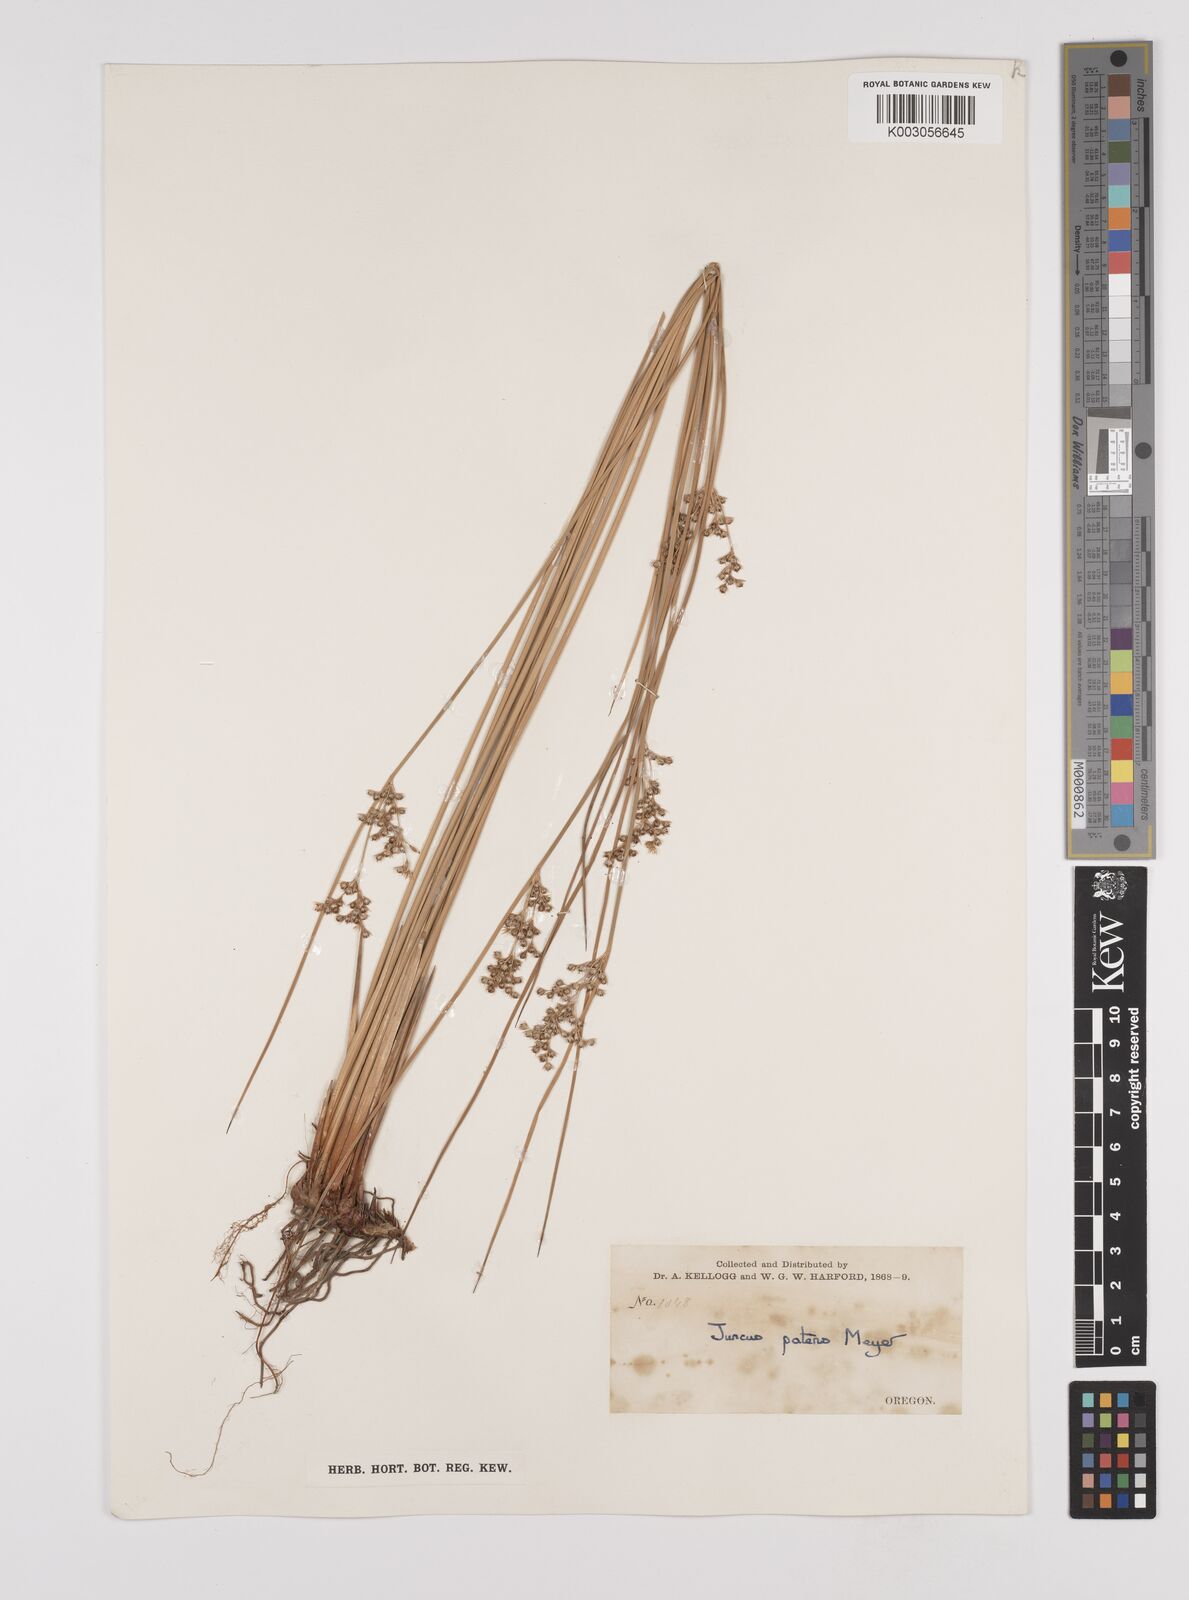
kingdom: Plantae
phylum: Tracheophyta
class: Liliopsida
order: Poales
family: Juncaceae
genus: Juncus
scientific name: Juncus patens
